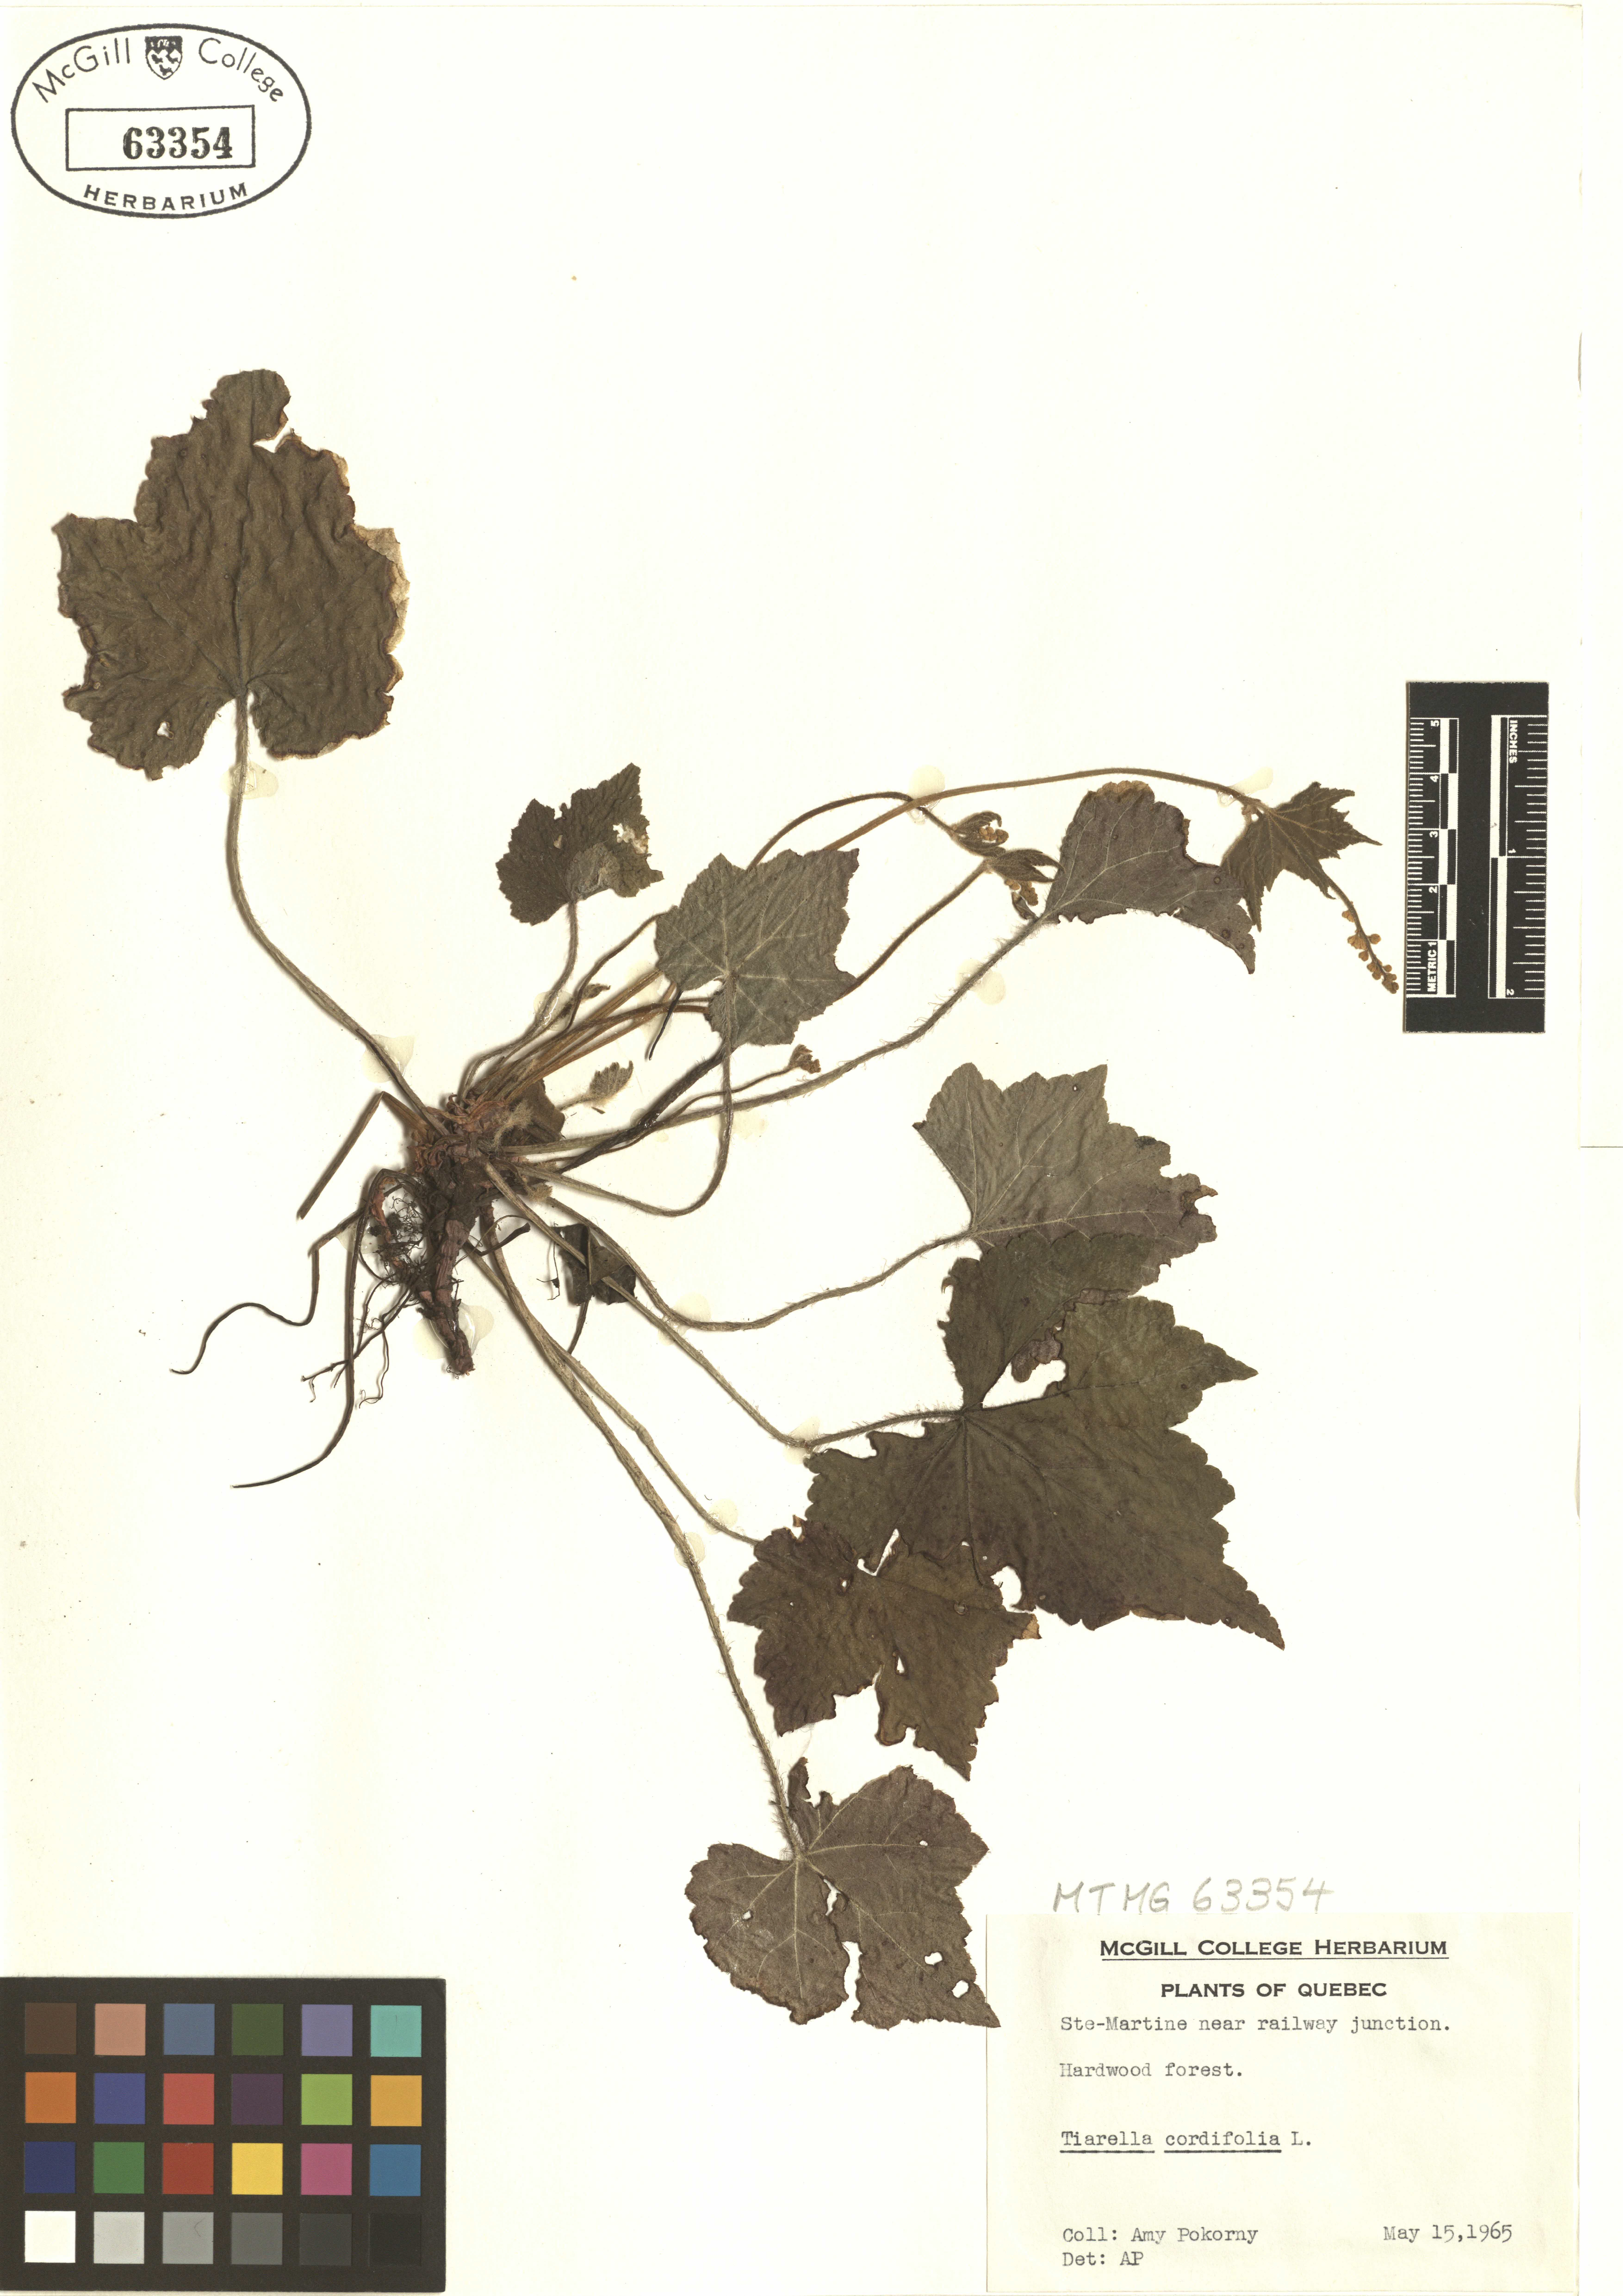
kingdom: Plantae
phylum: Tracheophyta
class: Magnoliopsida
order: Saxifragales
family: Saxifragaceae
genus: Tiarella
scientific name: Tiarella cordifolia
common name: Foamflower
